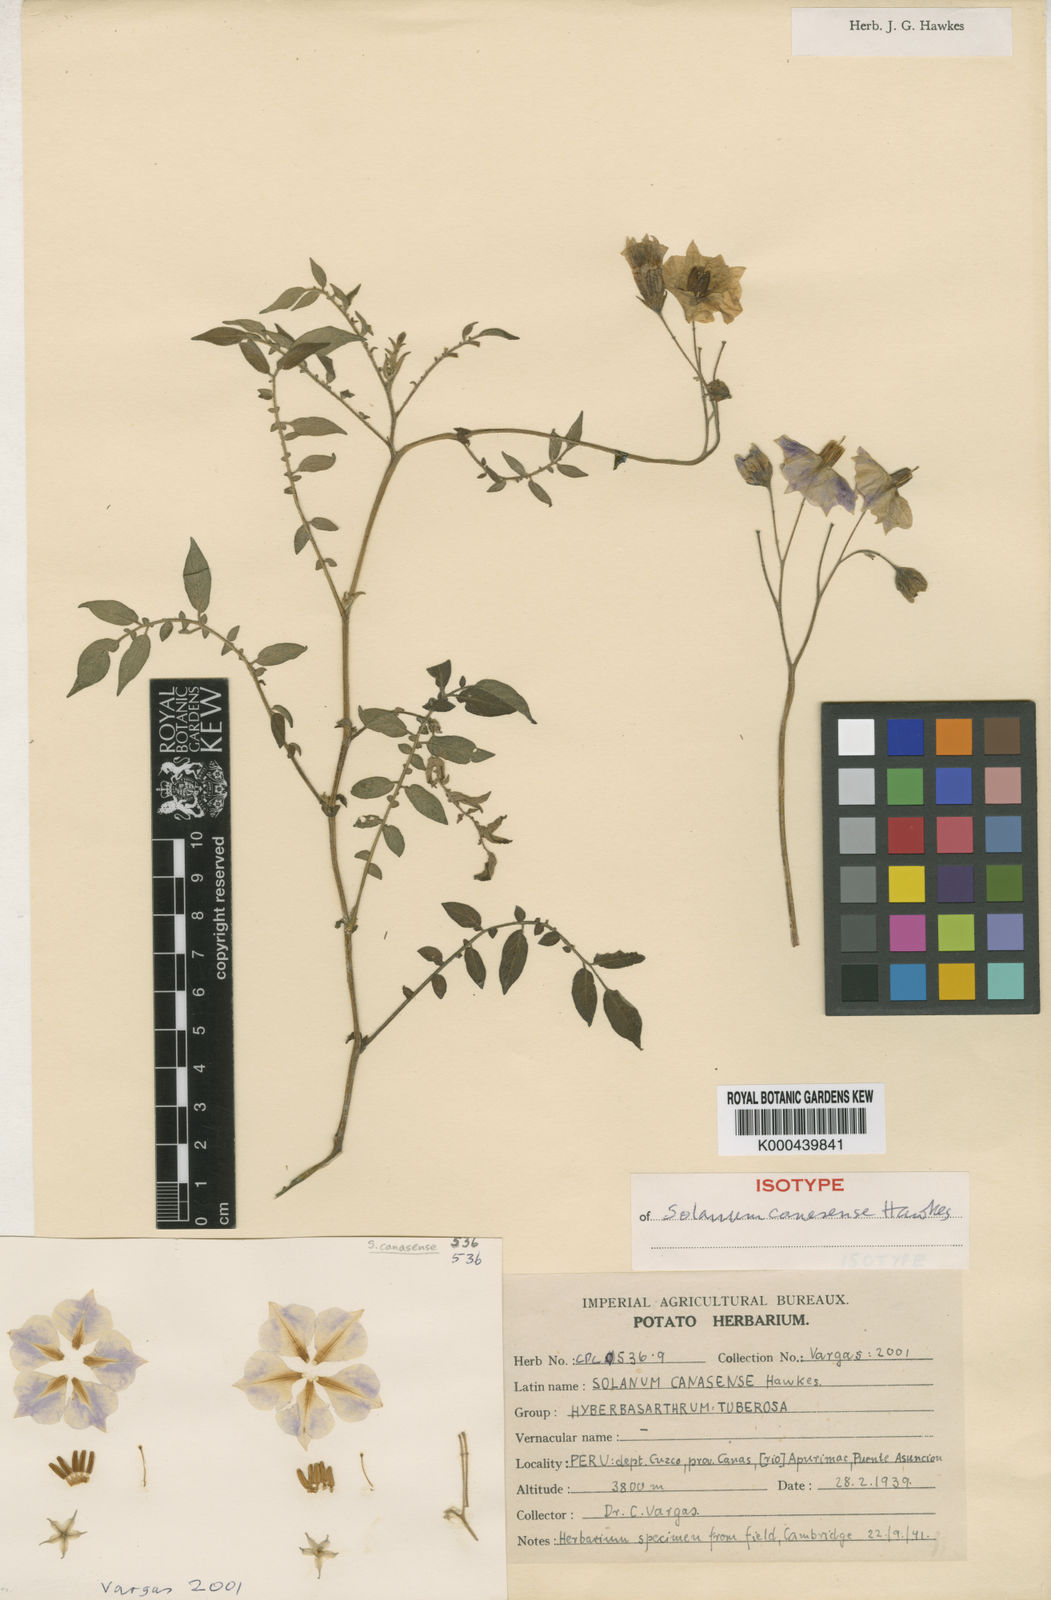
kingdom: Plantae
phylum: Tracheophyta
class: Magnoliopsida
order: Solanales
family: Solanaceae
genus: Solanum
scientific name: Solanum candolleanum
